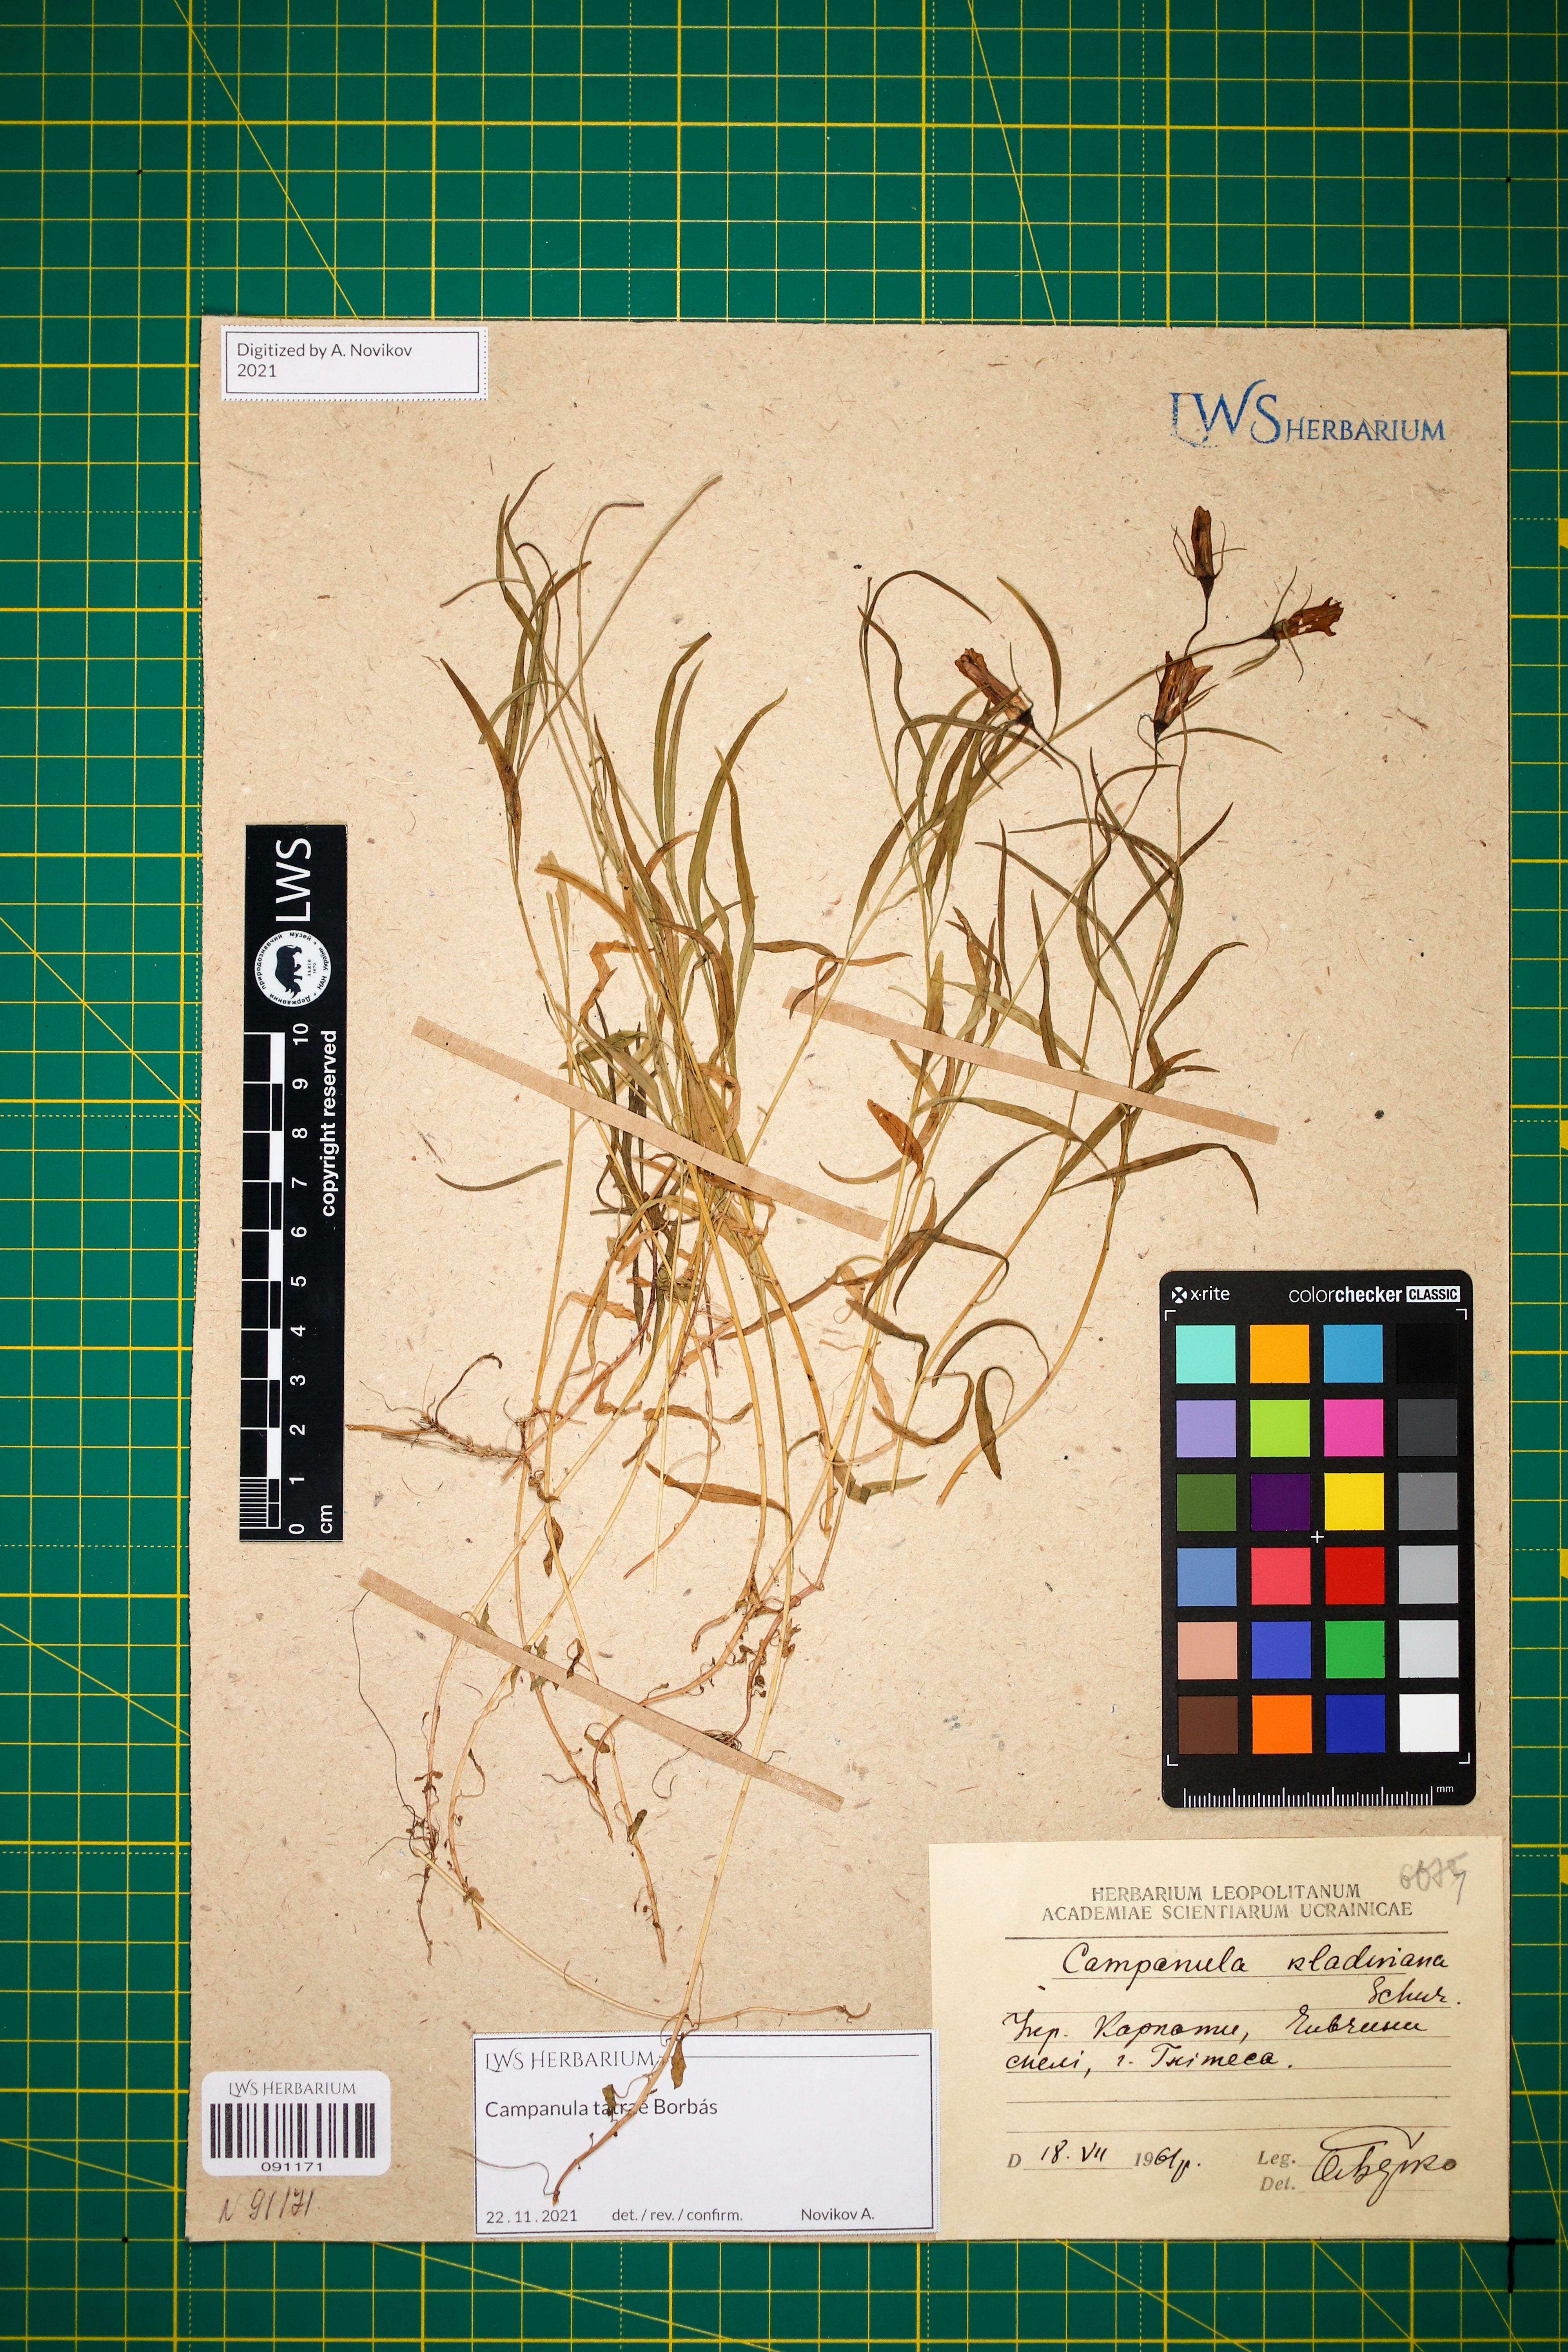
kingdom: Plantae
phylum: Tracheophyta
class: Magnoliopsida
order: Asterales
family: Campanulaceae
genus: Campanula
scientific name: Campanula kladniana
